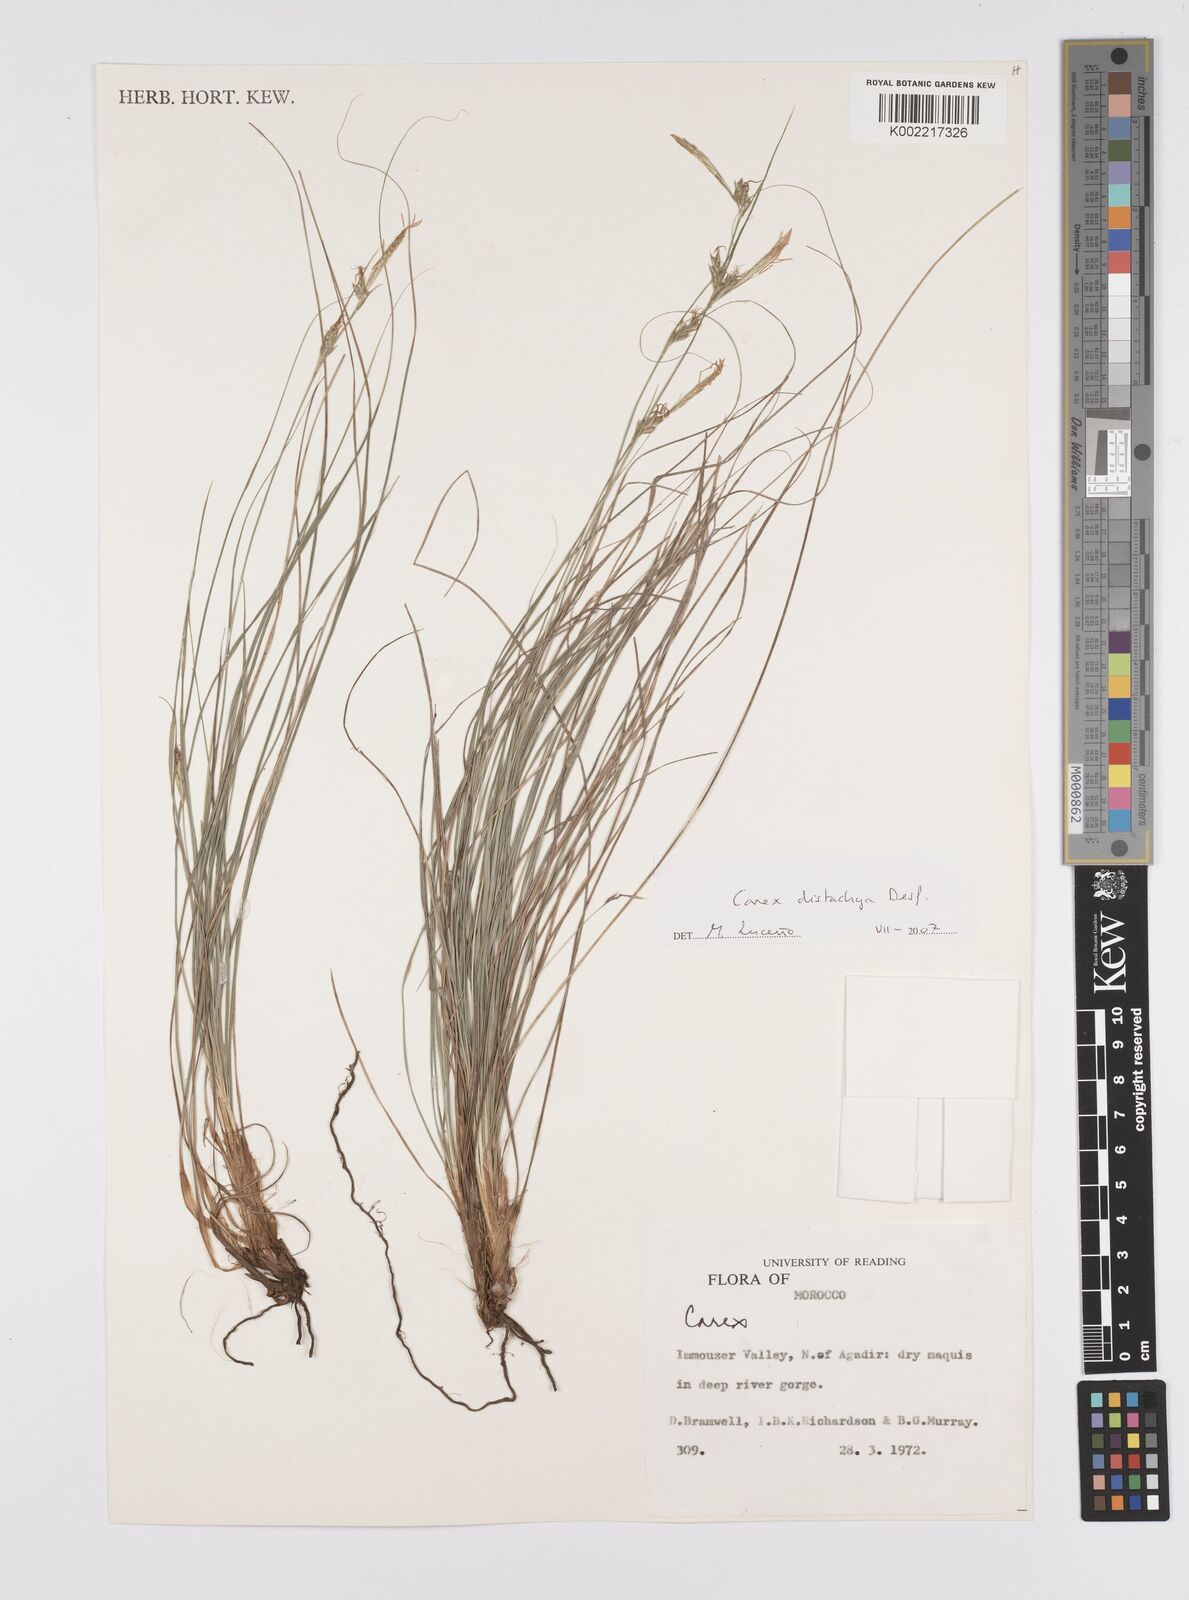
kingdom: Plantae
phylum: Tracheophyta
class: Liliopsida
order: Poales
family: Cyperaceae
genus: Carex
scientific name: Carex distachya
